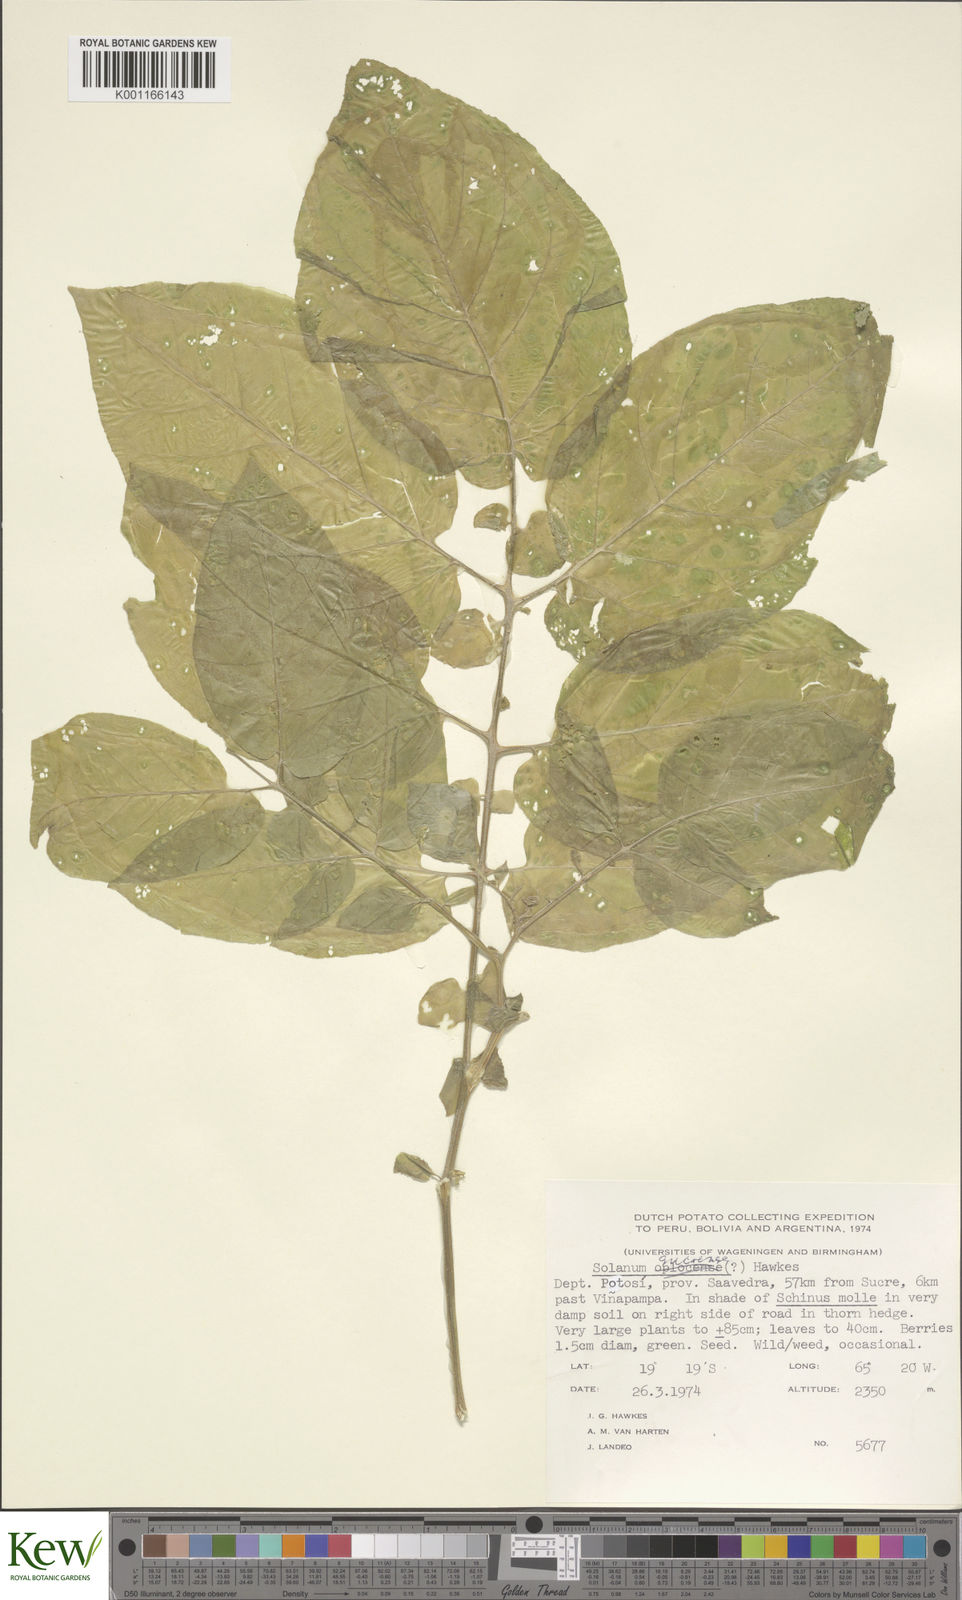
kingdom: Plantae
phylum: Tracheophyta
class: Magnoliopsida
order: Solanales
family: Solanaceae
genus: Solanum
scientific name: Solanum brevicaule
